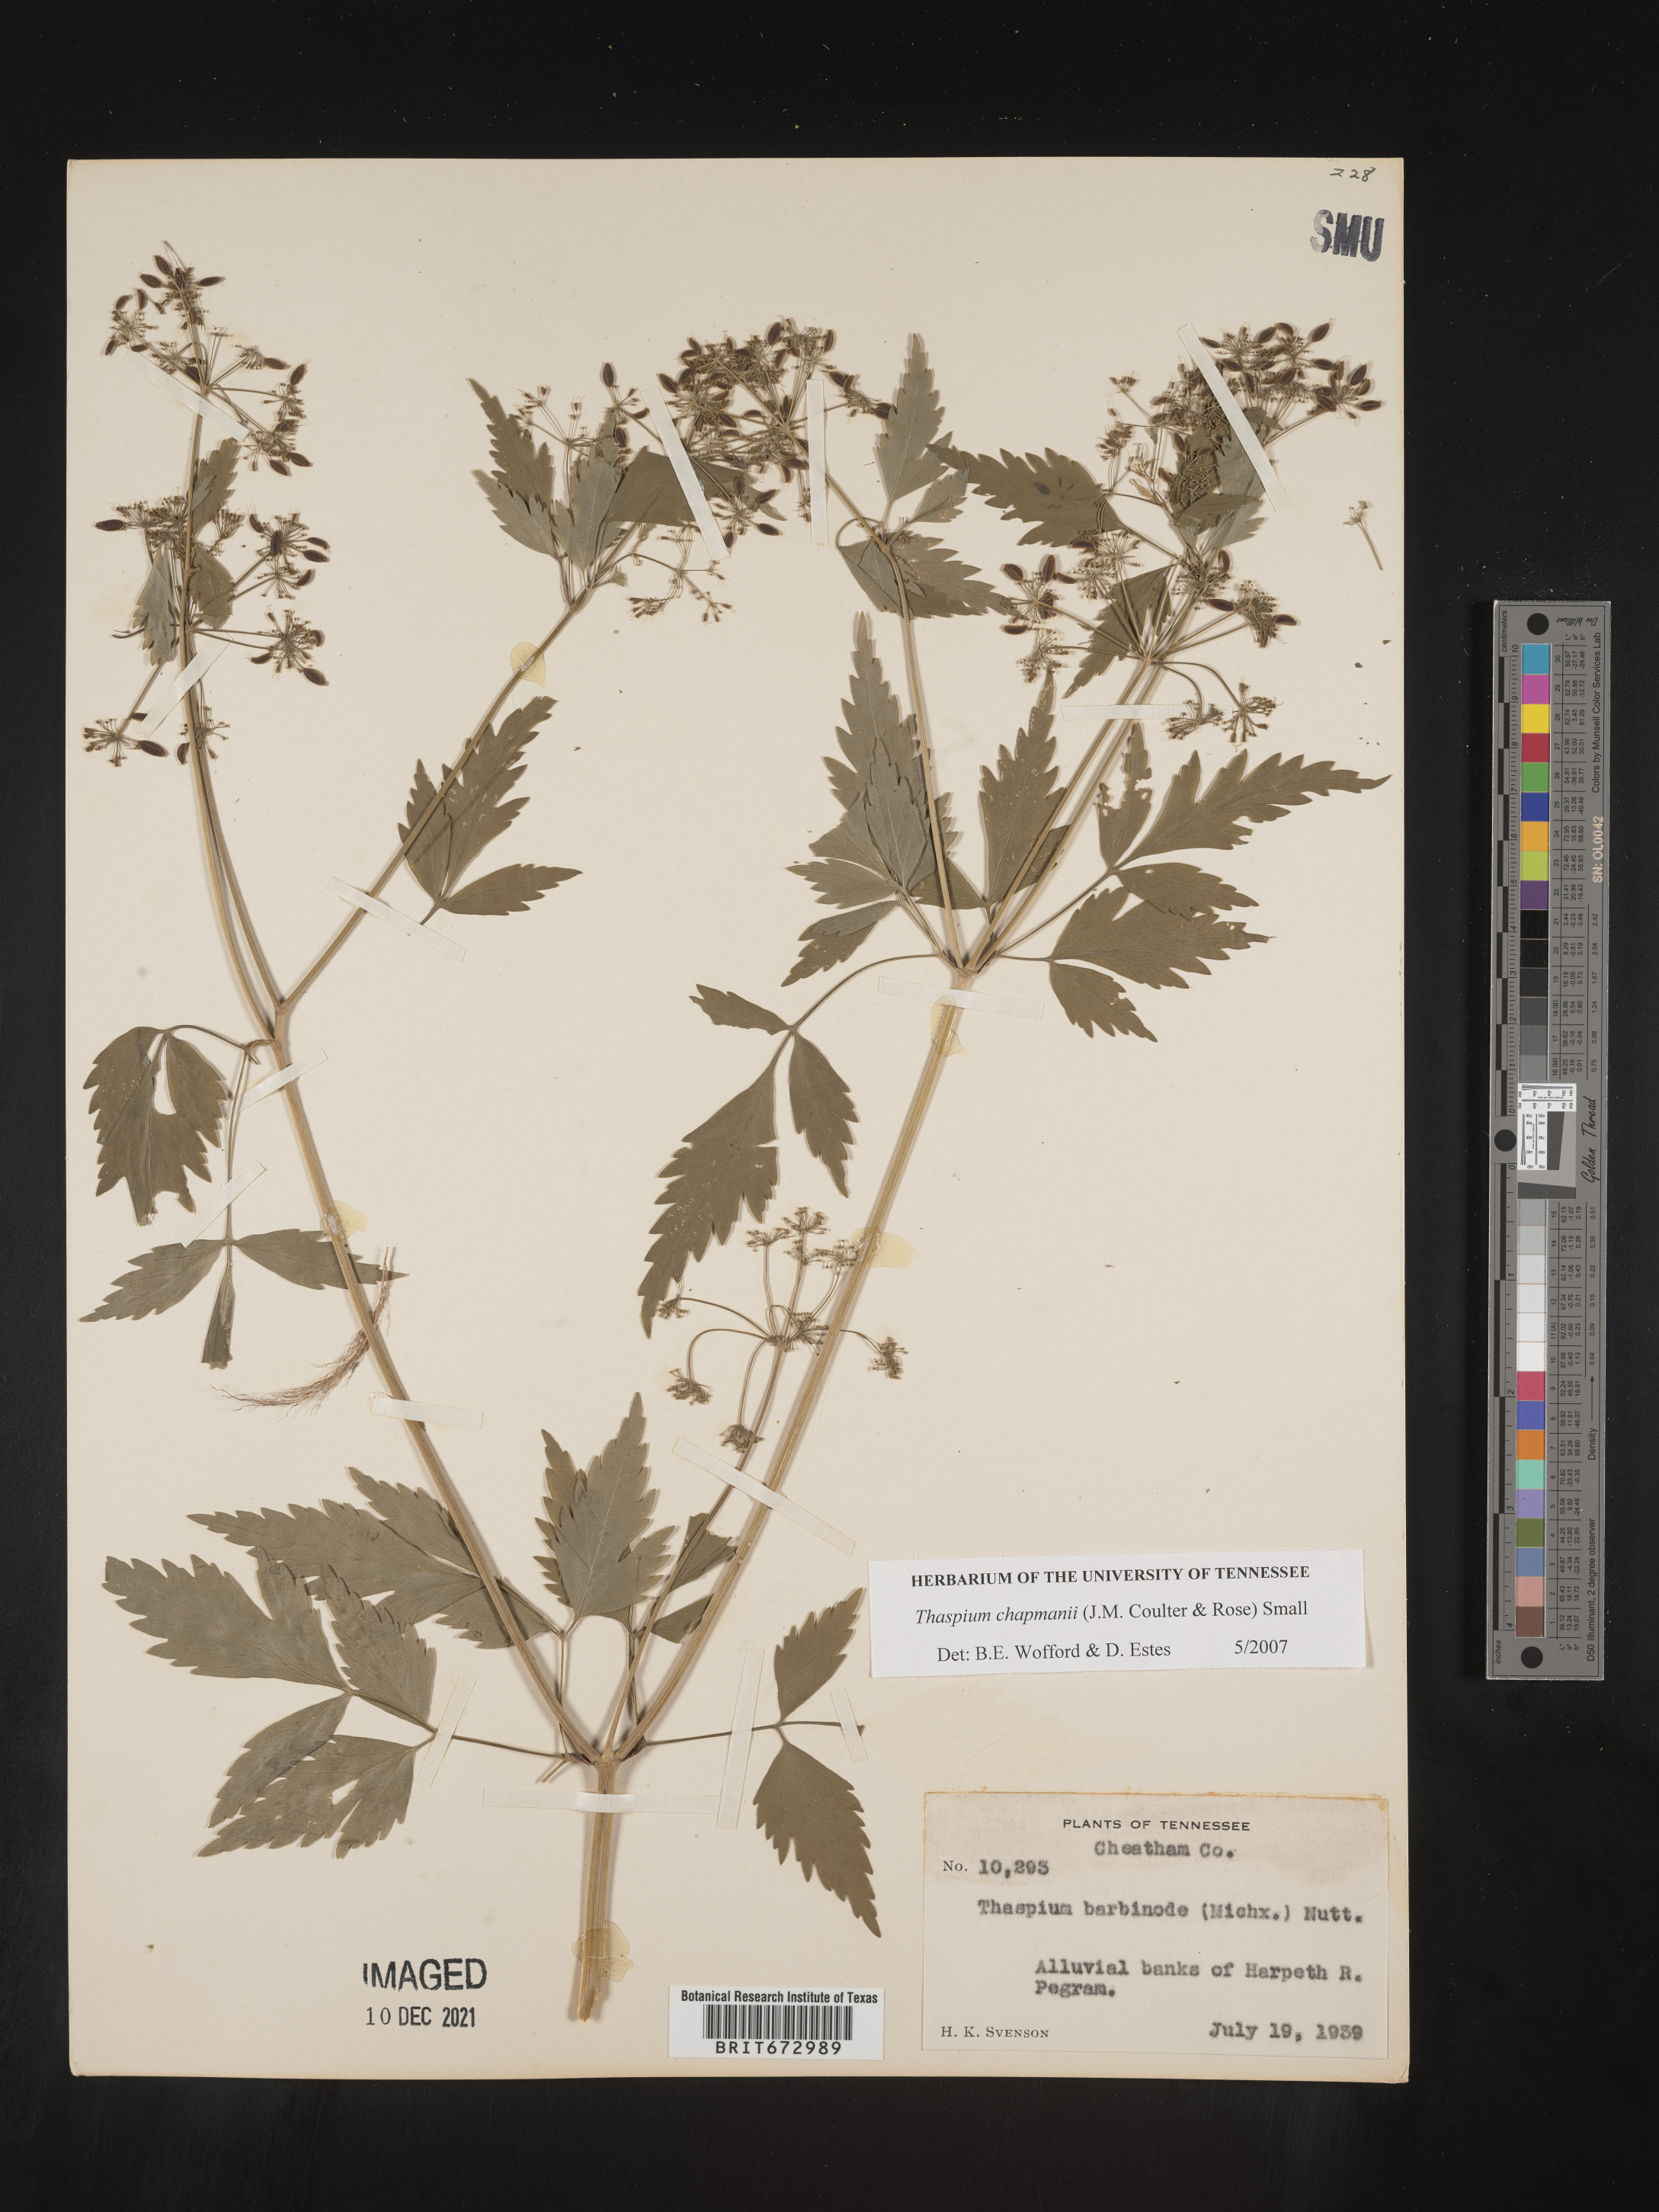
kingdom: Plantae
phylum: Tracheophyta
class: Magnoliopsida
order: Apiales
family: Apiaceae
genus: Thaspium
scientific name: Thaspium barbinode
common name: Bearded meadow-parsnip
